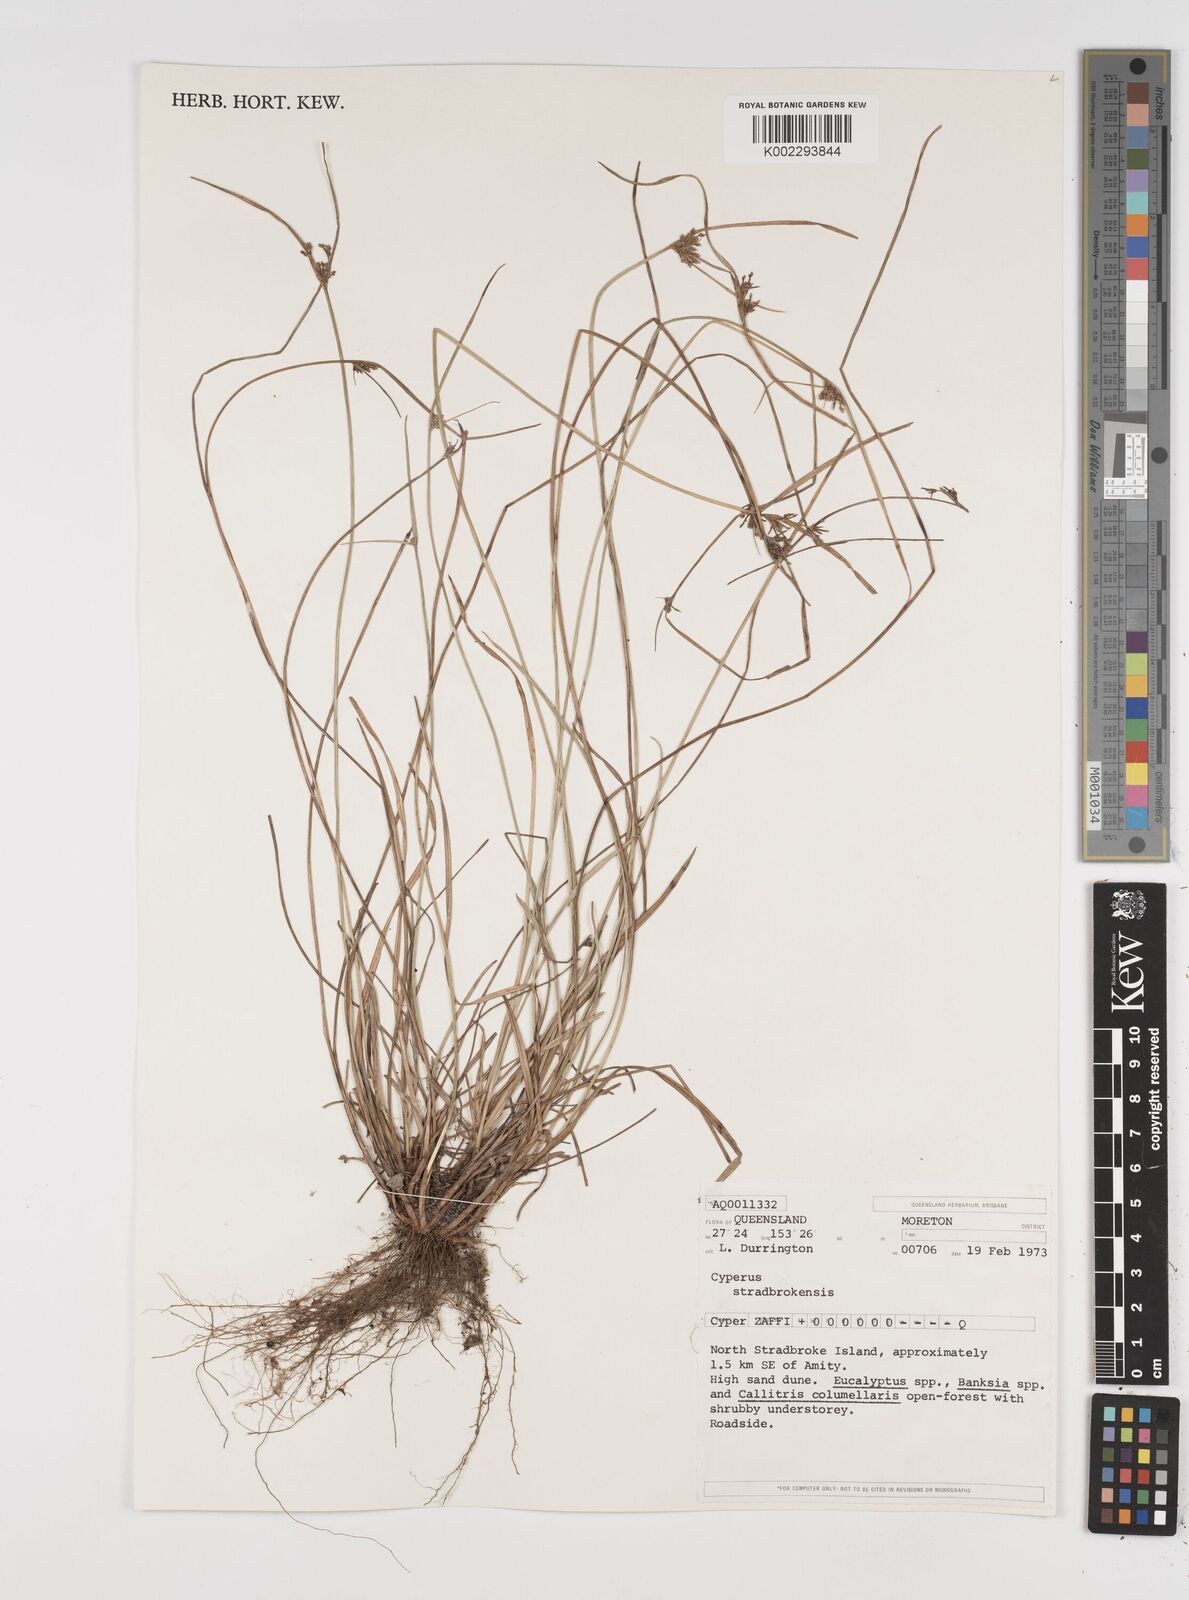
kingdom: Plantae
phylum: Tracheophyta
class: Liliopsida
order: Poales
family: Cyperaceae
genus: Cyperus
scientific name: Cyperus stradbrokensis
